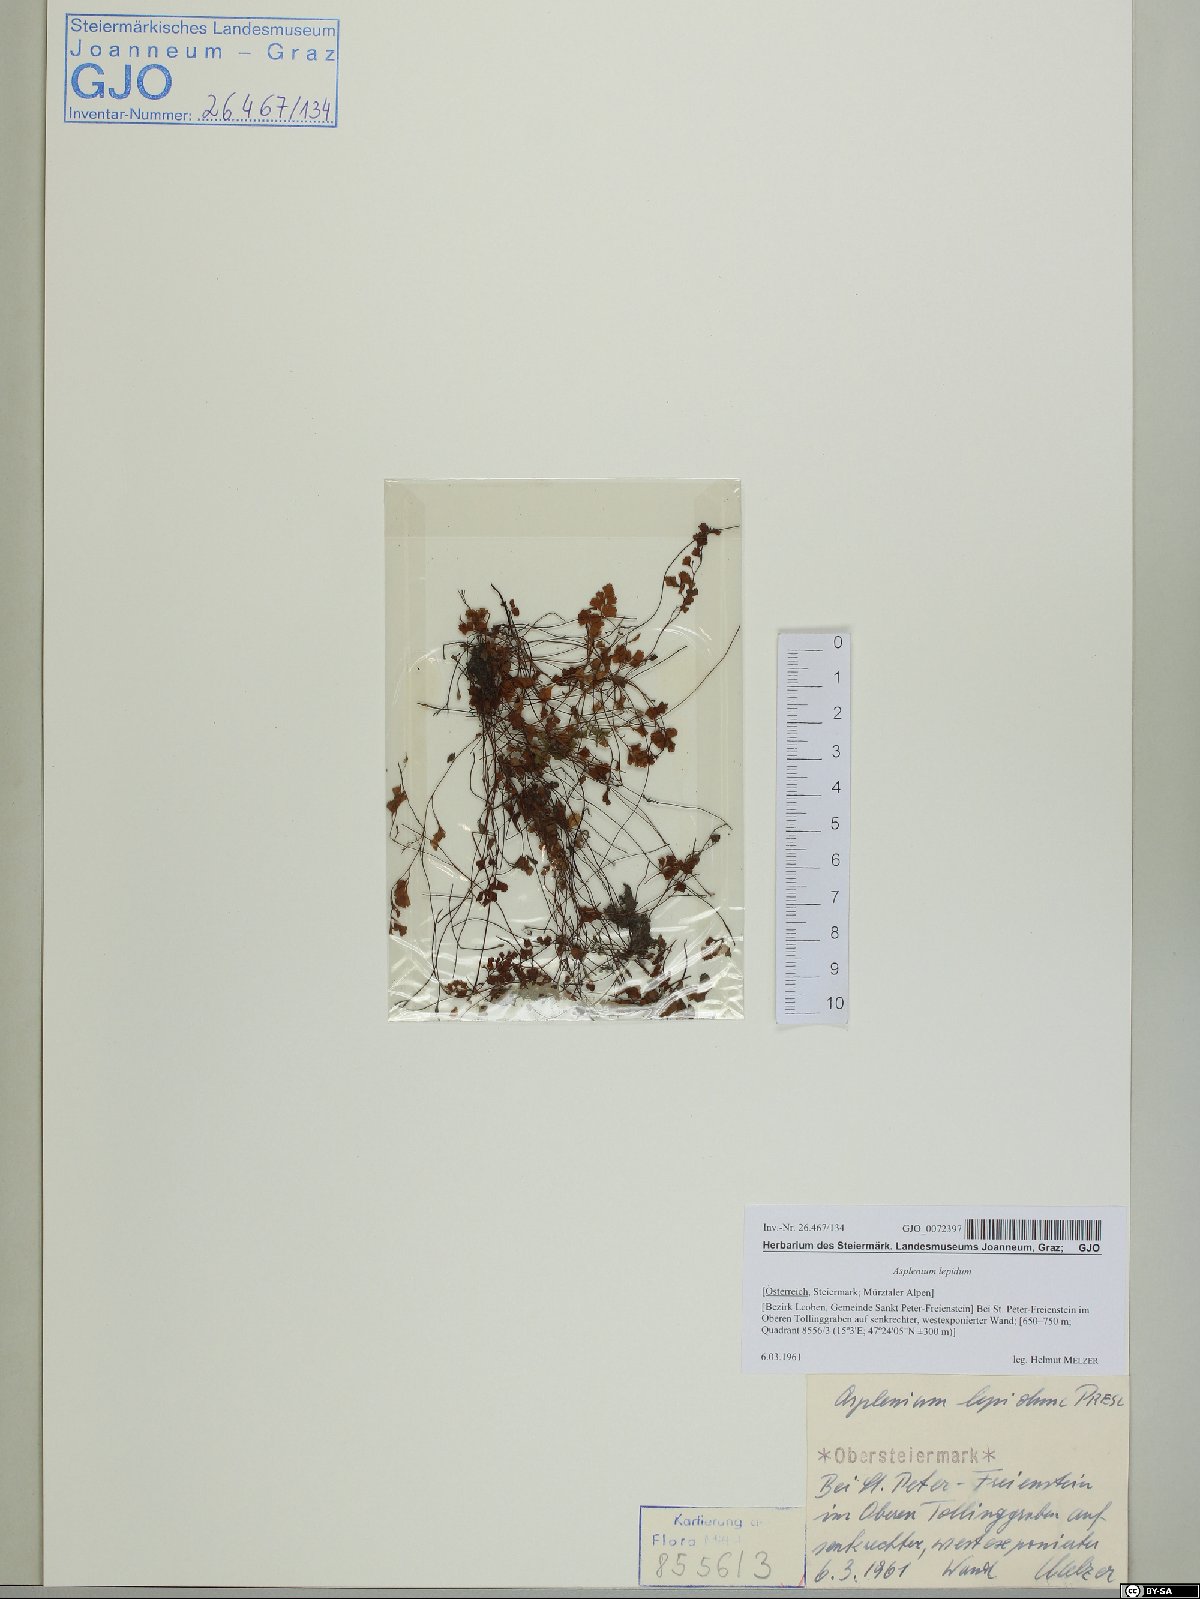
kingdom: Plantae
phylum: Tracheophyta
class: Polypodiopsida
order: Polypodiales
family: Aspleniaceae
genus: Asplenium
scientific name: Asplenium lepidum
